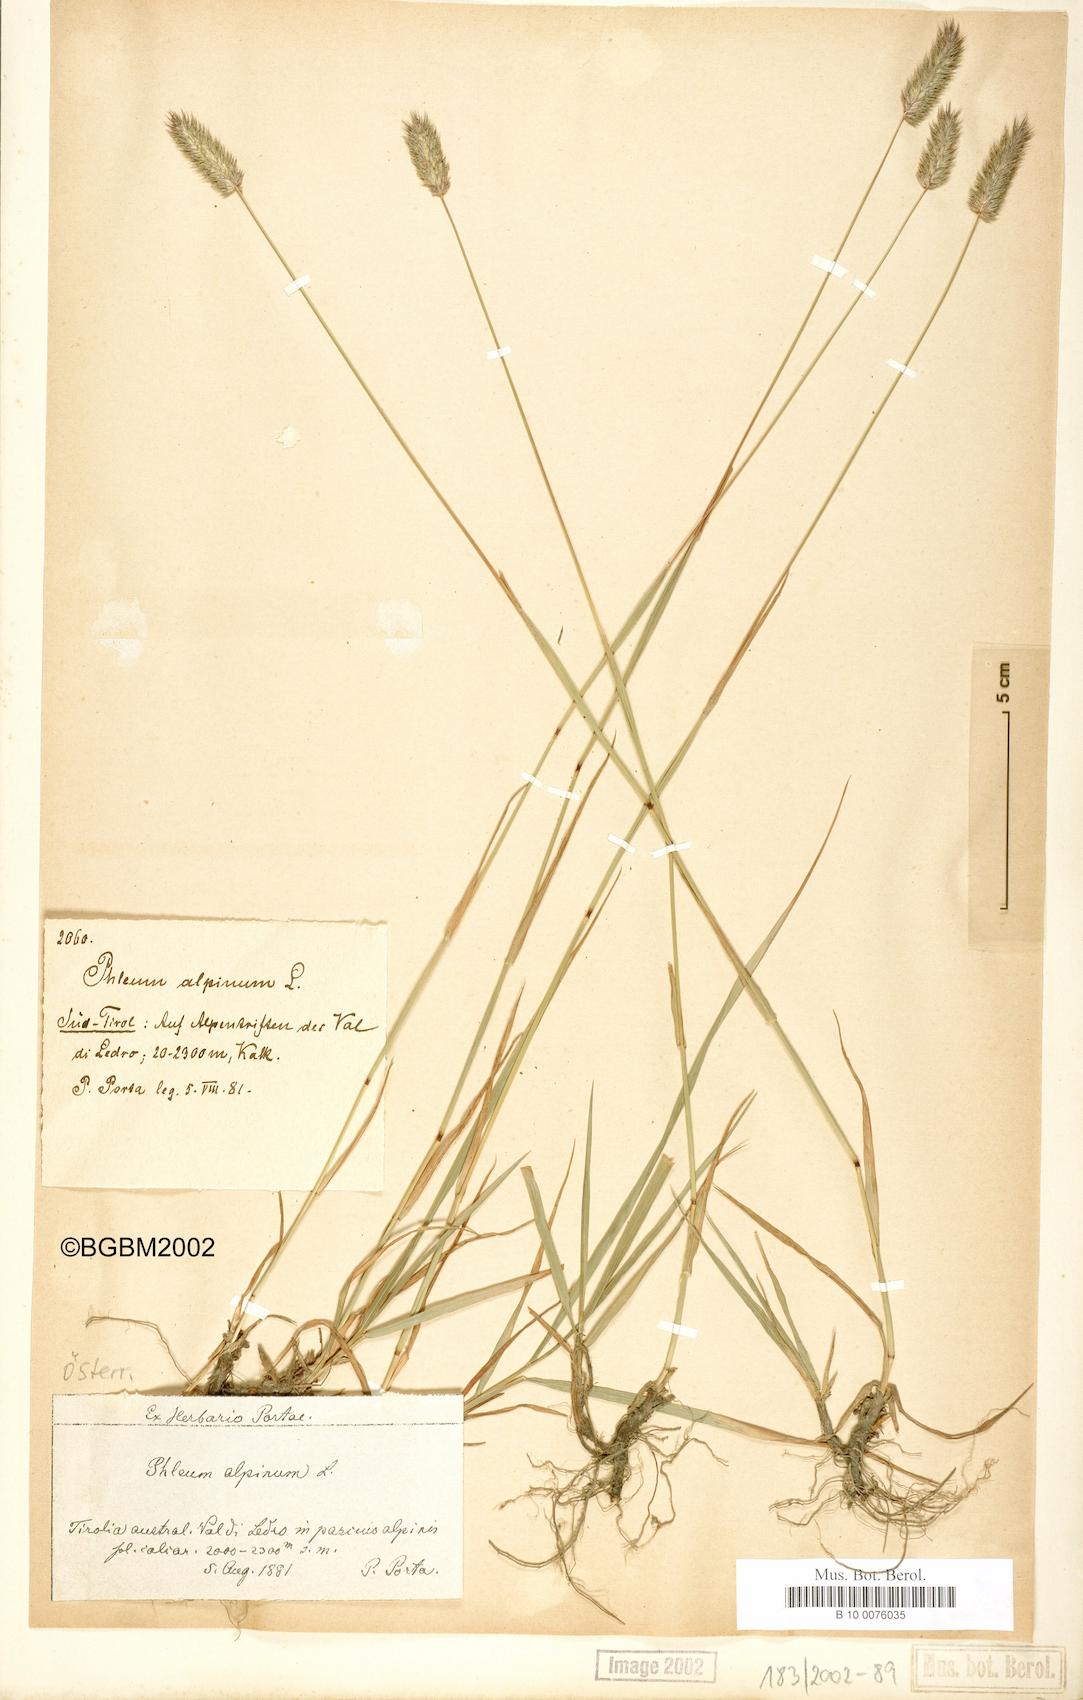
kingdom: Plantae
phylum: Tracheophyta
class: Liliopsida
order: Poales
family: Poaceae
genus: Phleum
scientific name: Phleum alpinum
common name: Alpine cat's-tail
